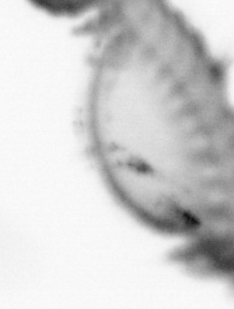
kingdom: Animalia
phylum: Annelida
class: Polychaeta
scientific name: Polychaeta
